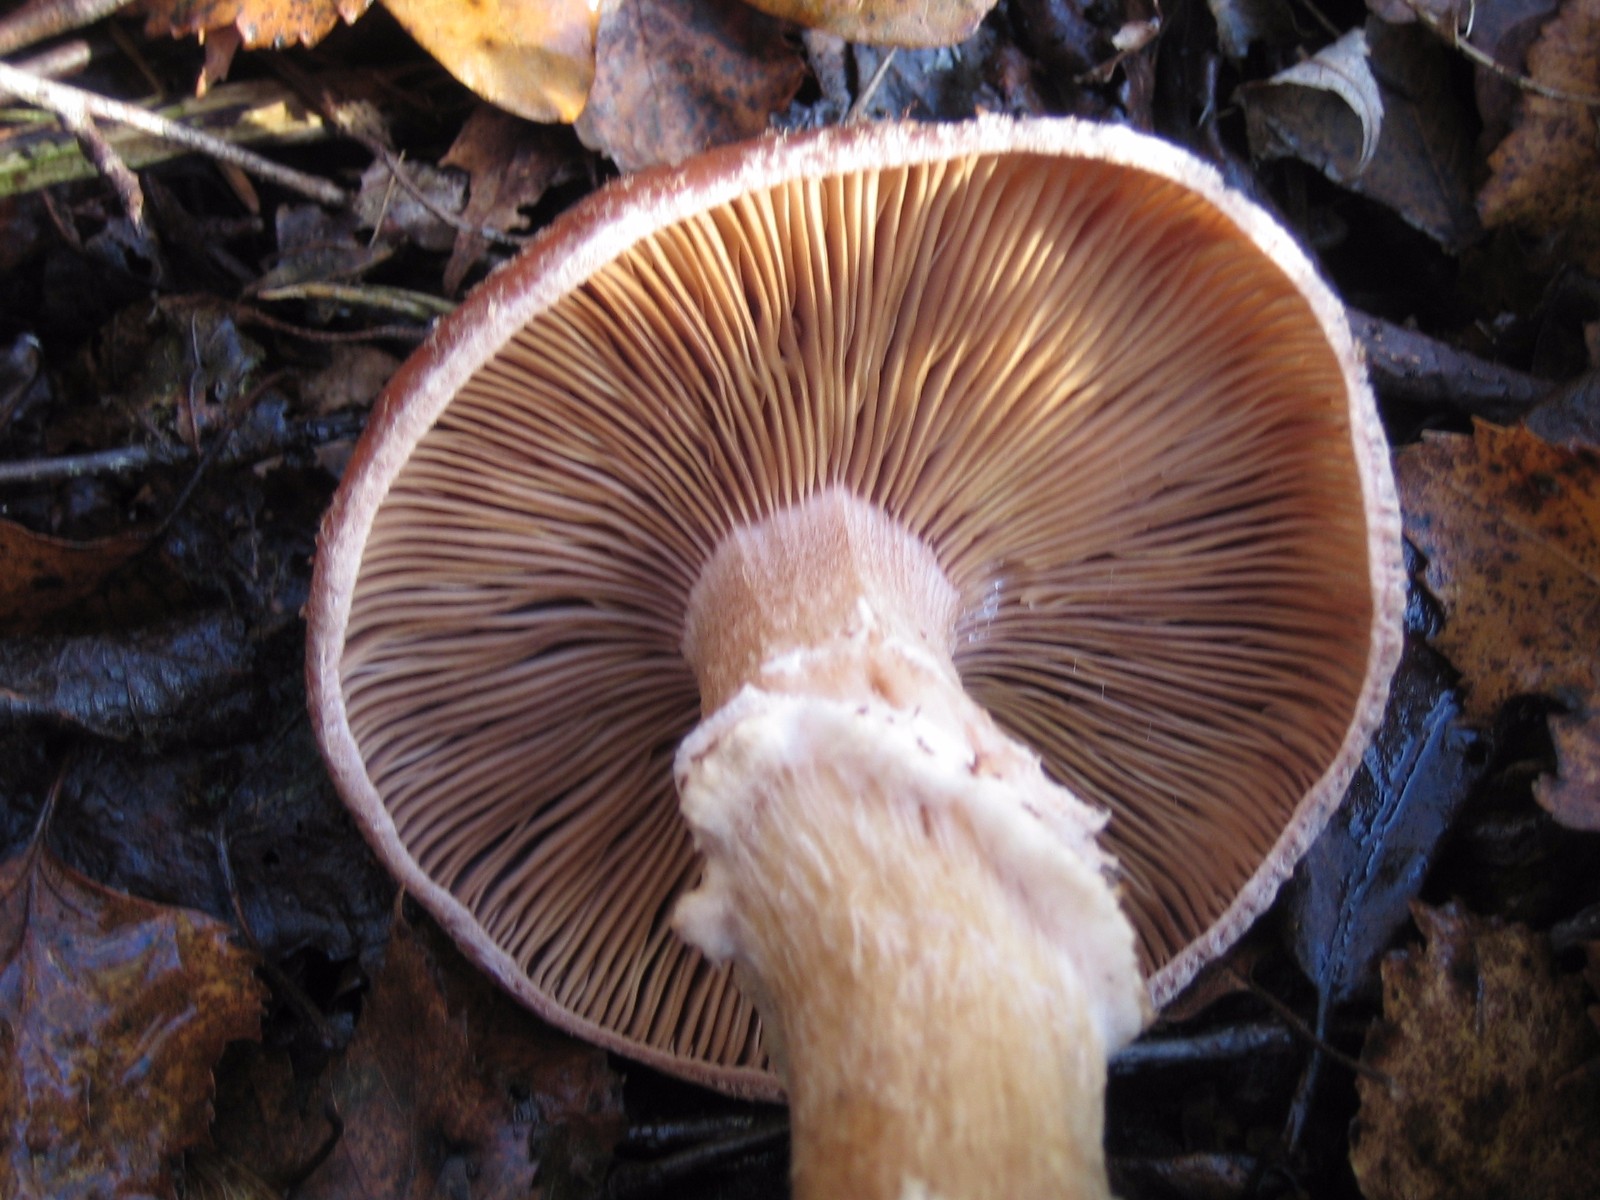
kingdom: Fungi
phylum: Basidiomycota
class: Agaricomycetes
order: Agaricales
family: Physalacriaceae
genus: Armillaria
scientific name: Armillaria ostoyae
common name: mørk honningsvamp
